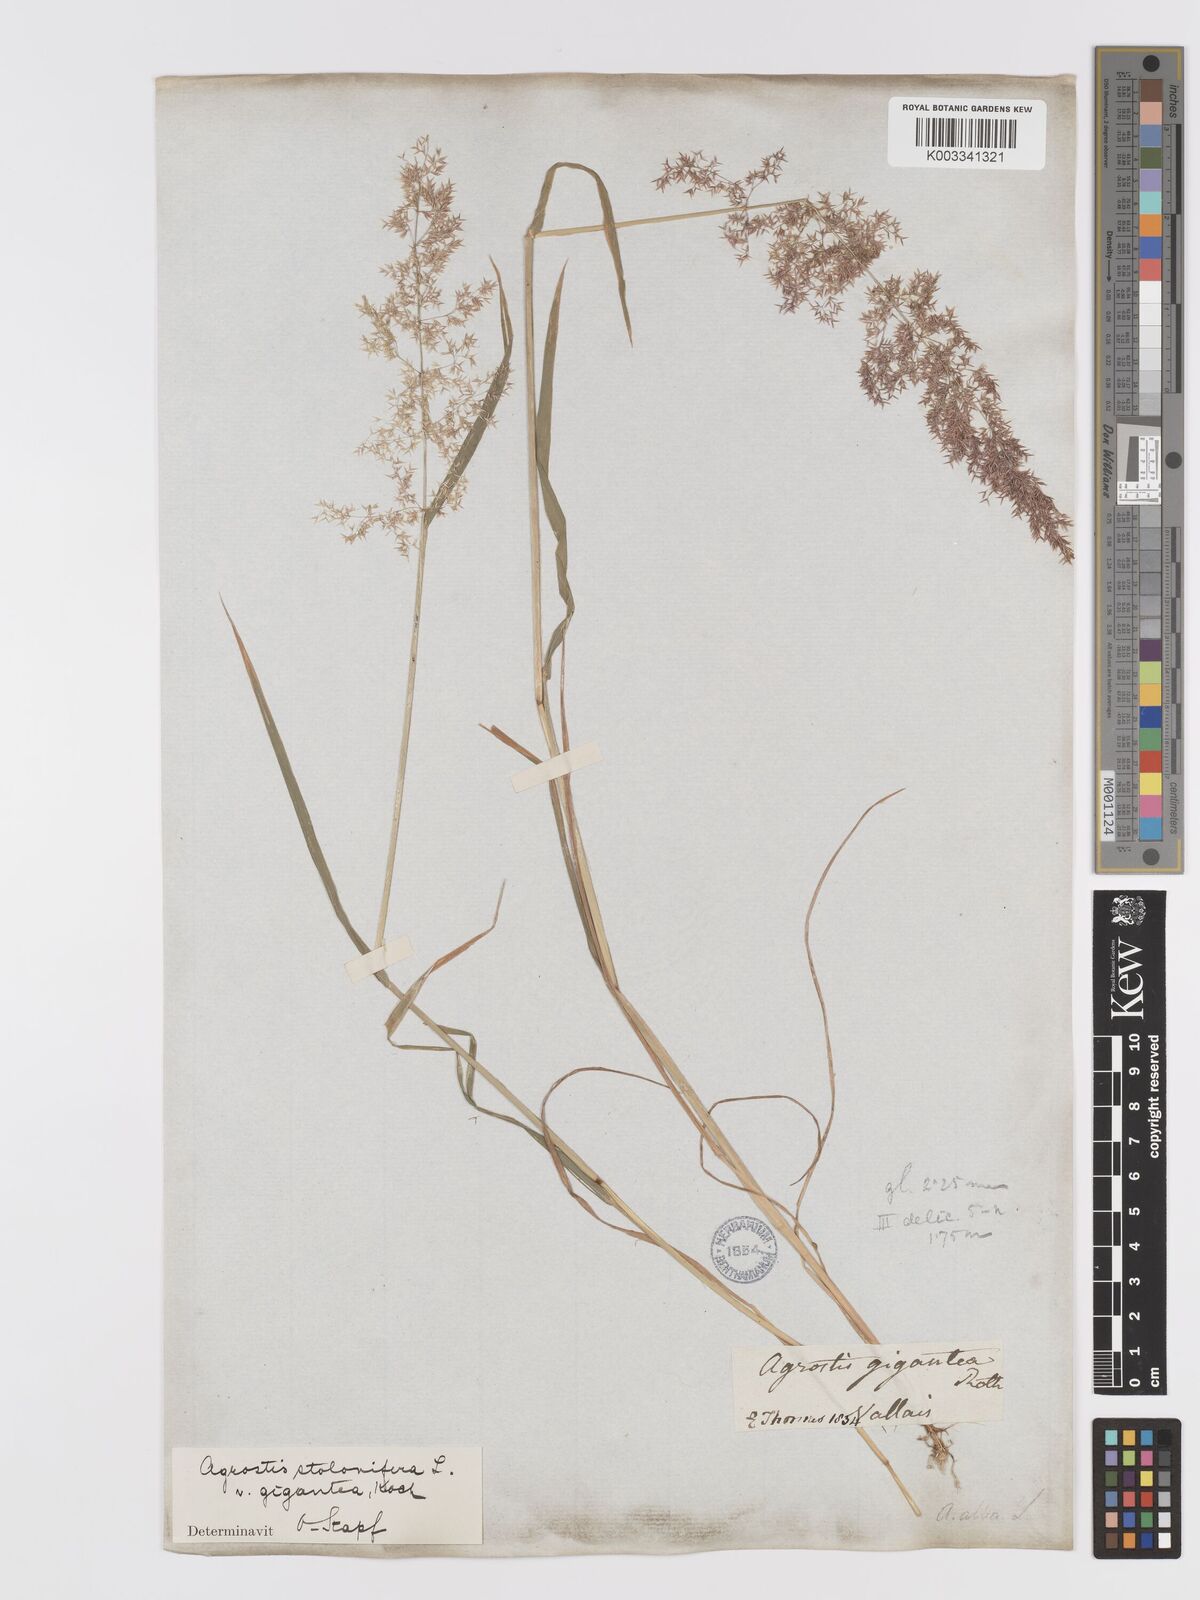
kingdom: Plantae
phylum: Tracheophyta
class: Liliopsida
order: Poales
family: Poaceae
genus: Agrostis
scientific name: Agrostis gigantea
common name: Black bent
